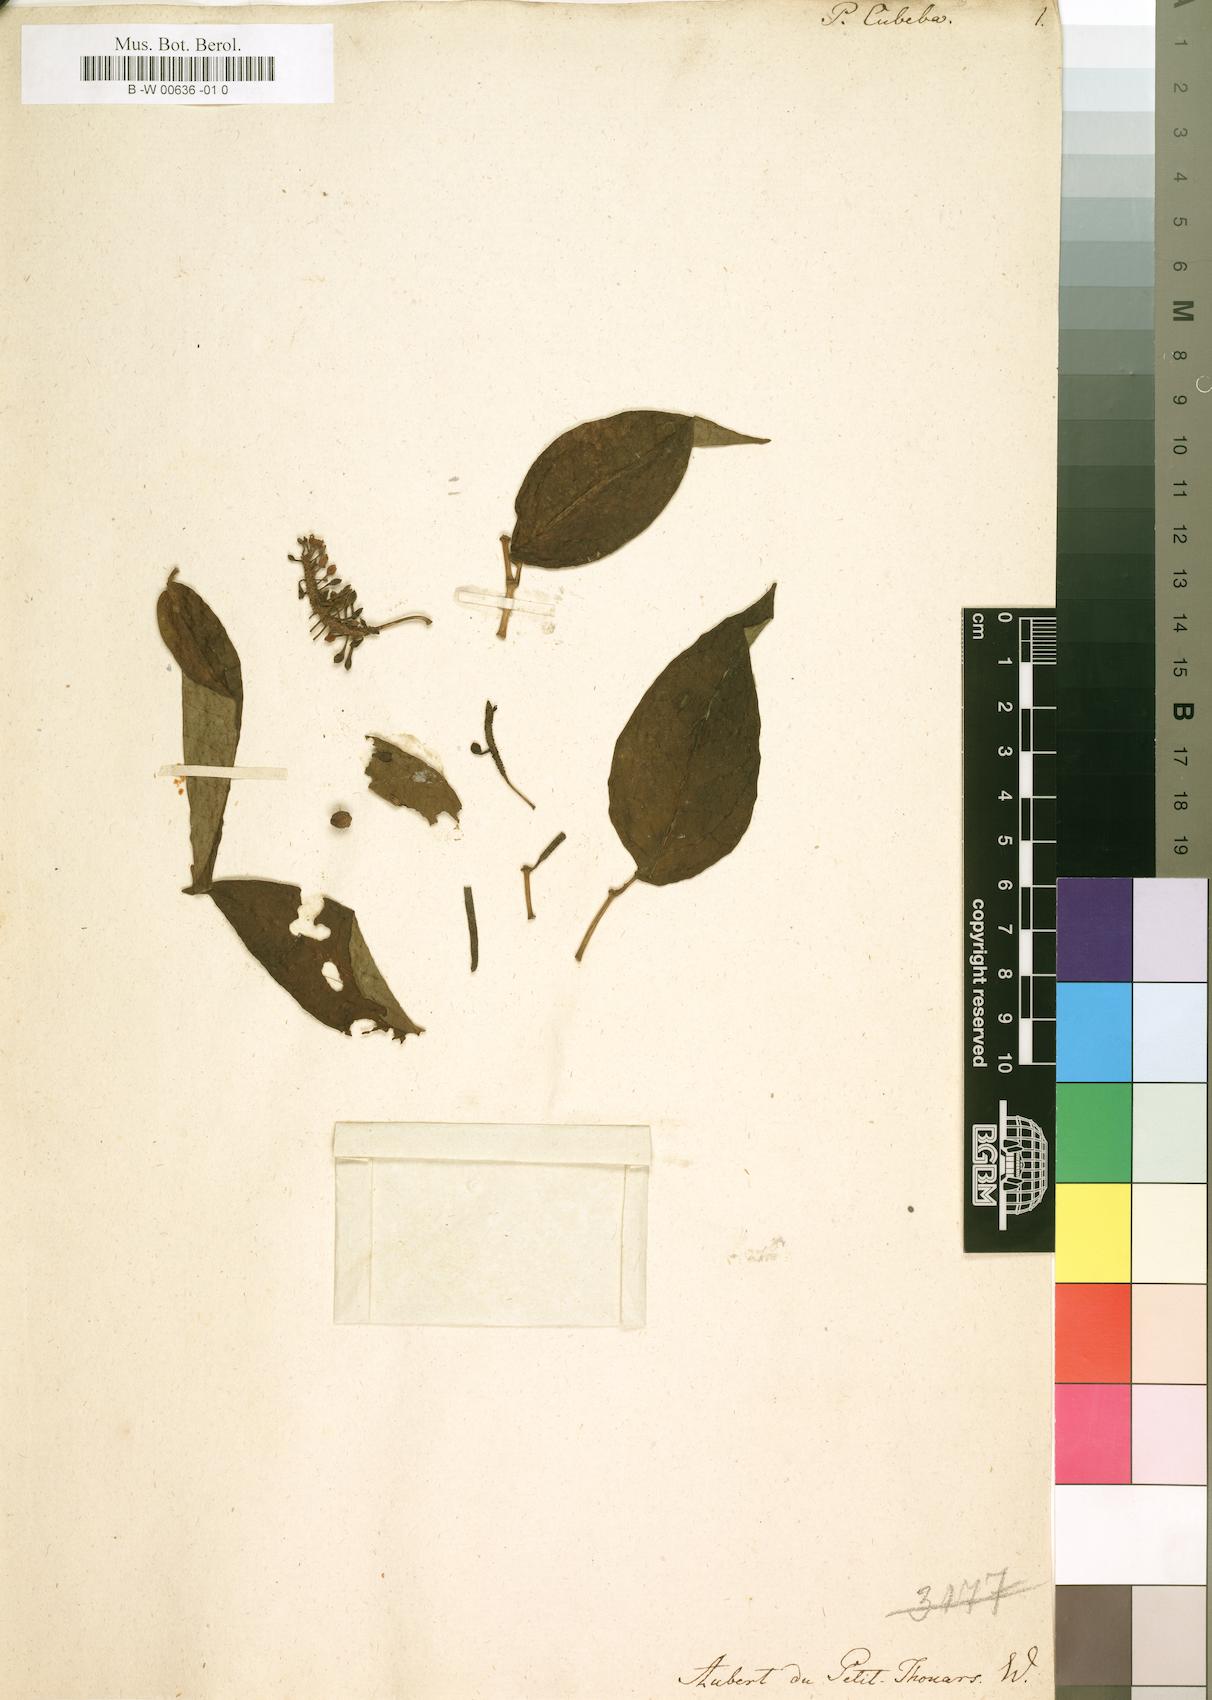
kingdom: Plantae
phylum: Tracheophyta
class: Magnoliopsida
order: Piperales
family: Piperaceae
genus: Piper
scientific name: Piper cubeba
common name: Cubeb
